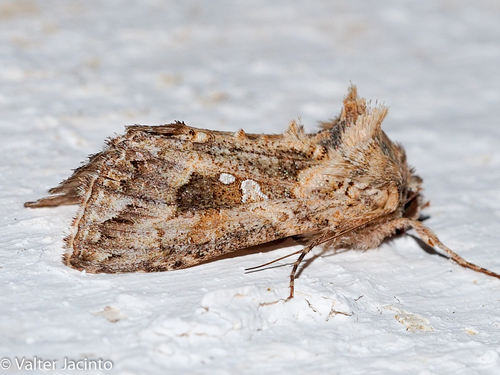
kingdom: Animalia
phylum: Arthropoda
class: Insecta
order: Lepidoptera
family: Noctuidae
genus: Trichoplusia
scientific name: Trichoplusia ni
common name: Ni moth
